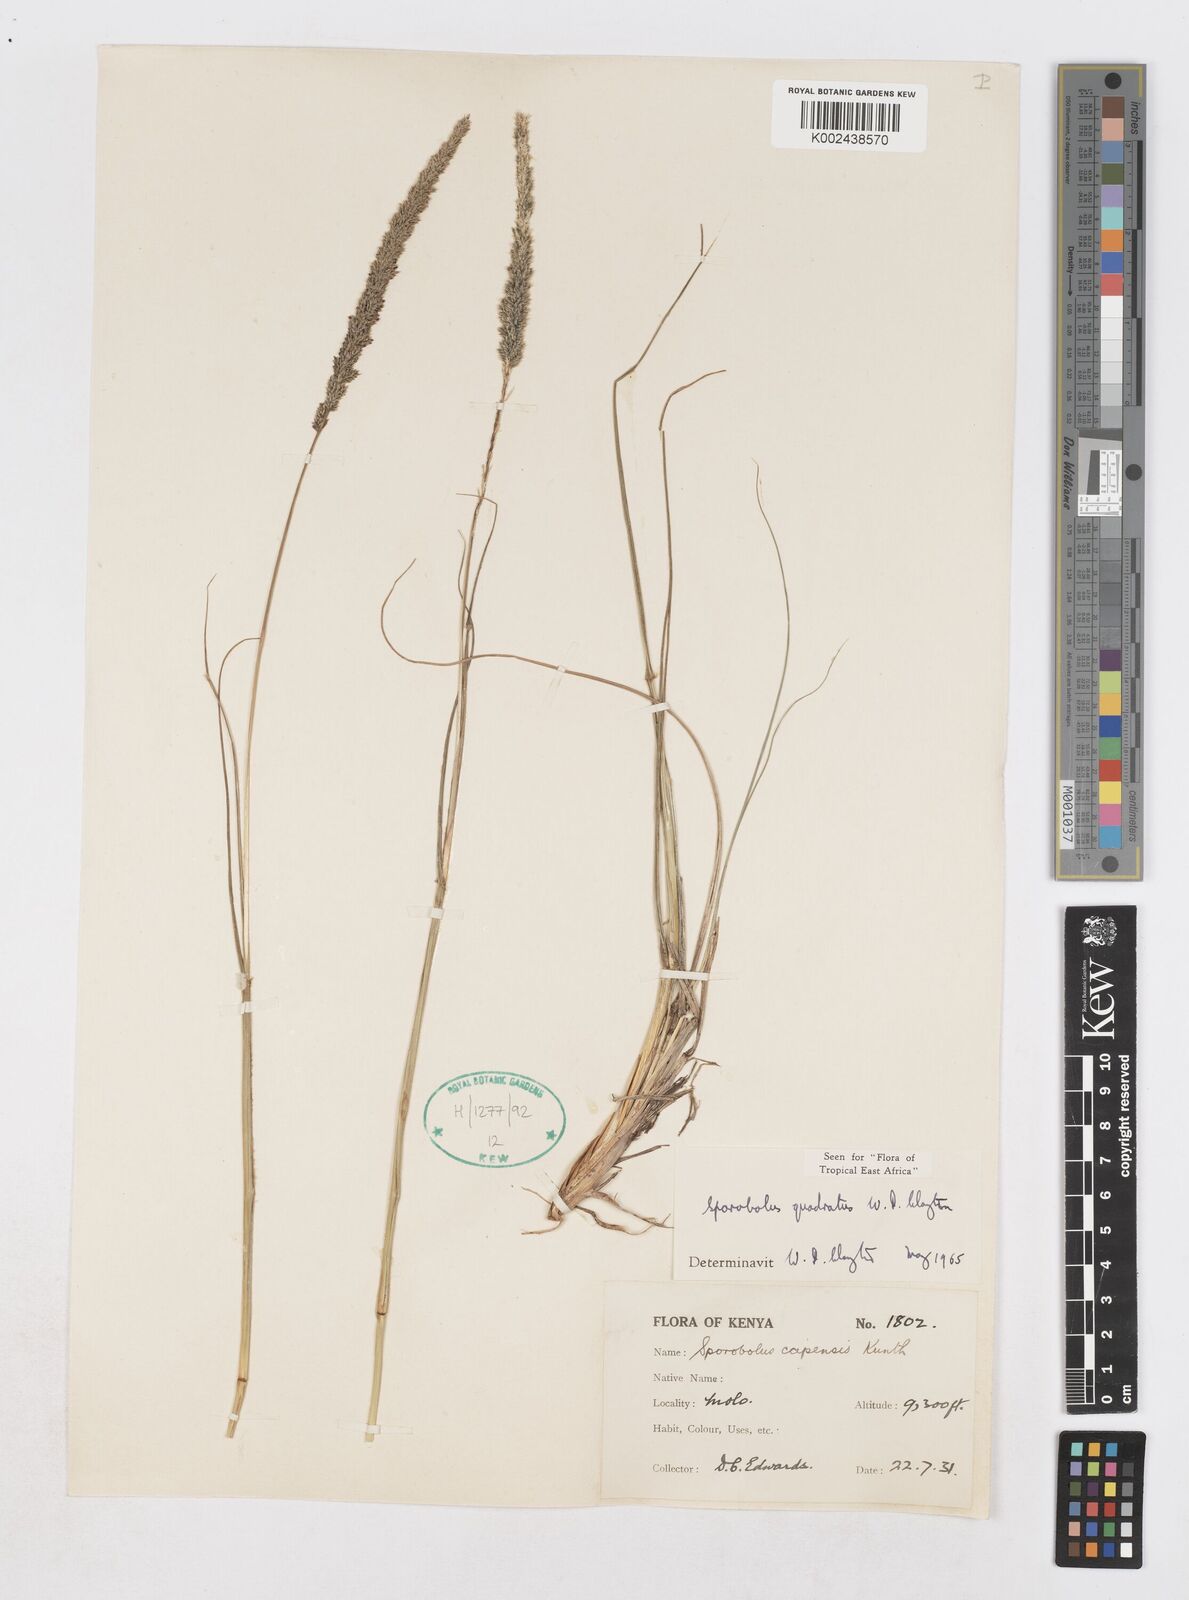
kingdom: Plantae
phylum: Tracheophyta
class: Liliopsida
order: Poales
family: Poaceae
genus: Sporobolus
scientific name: Sporobolus quadratus
